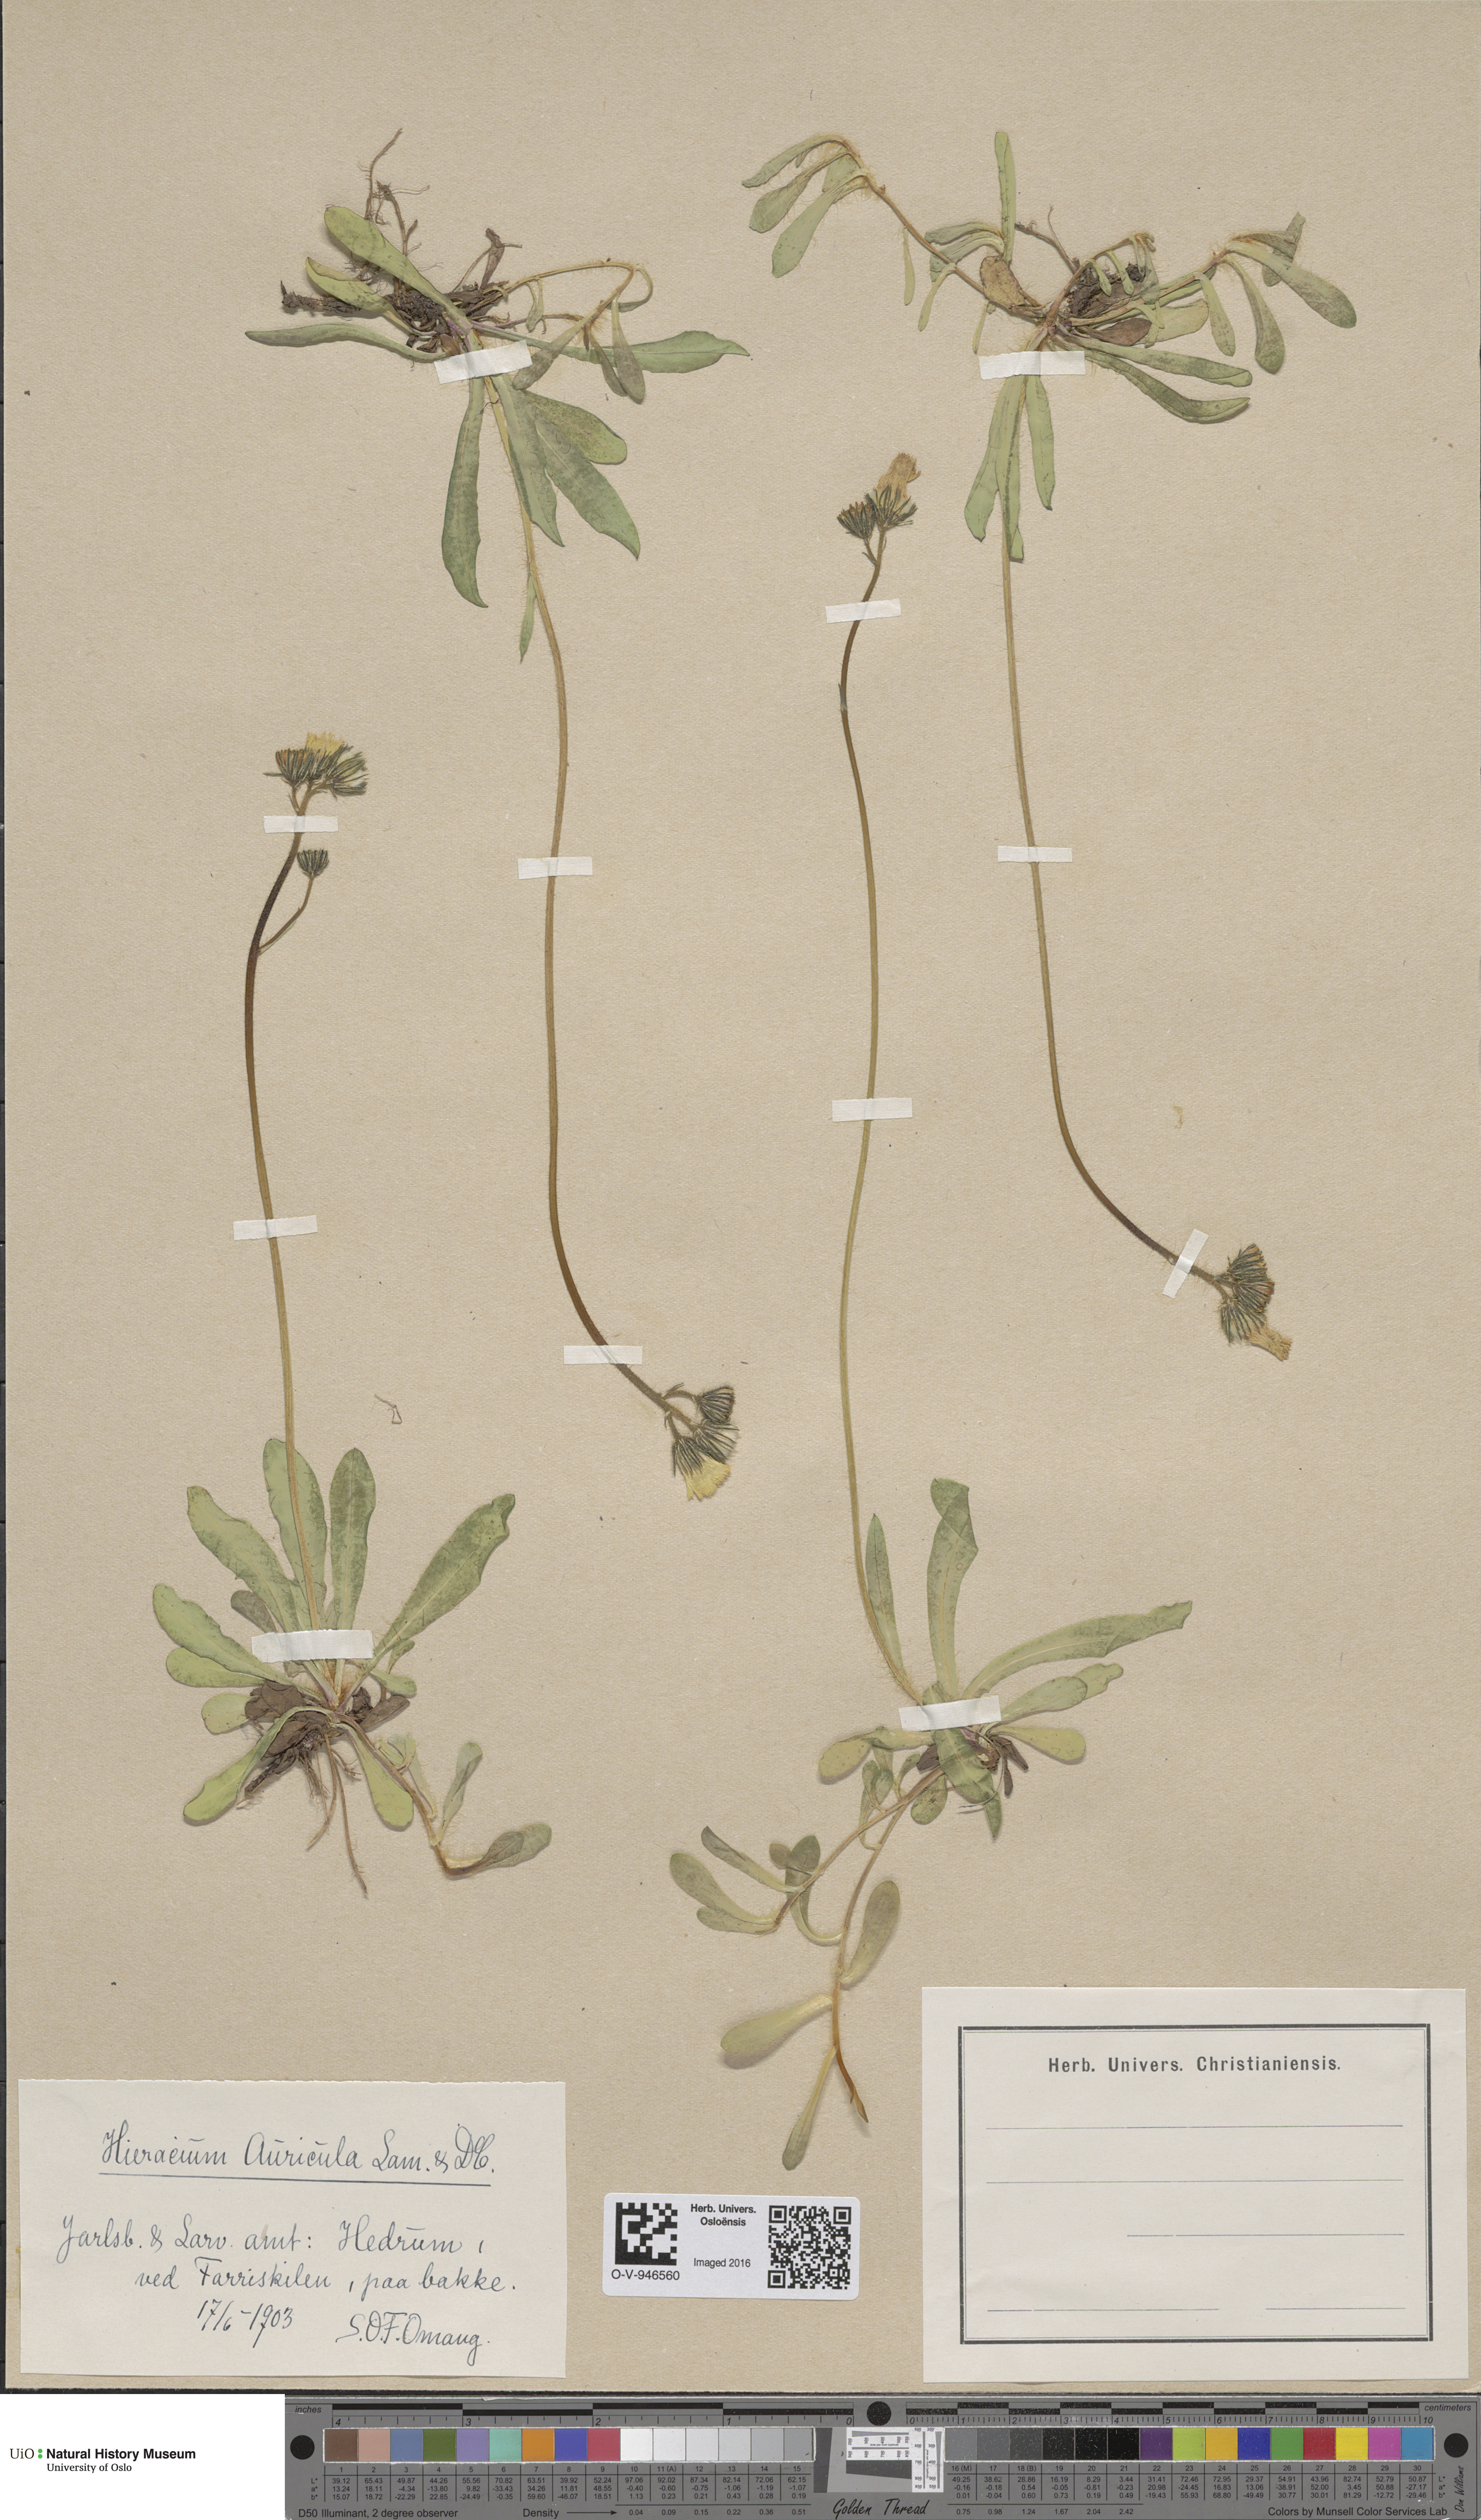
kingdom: Plantae
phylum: Tracheophyta
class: Magnoliopsida
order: Asterales
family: Asteraceae
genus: Pilosella
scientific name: Pilosella lactucella
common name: Glaucous fox-and-cubs
